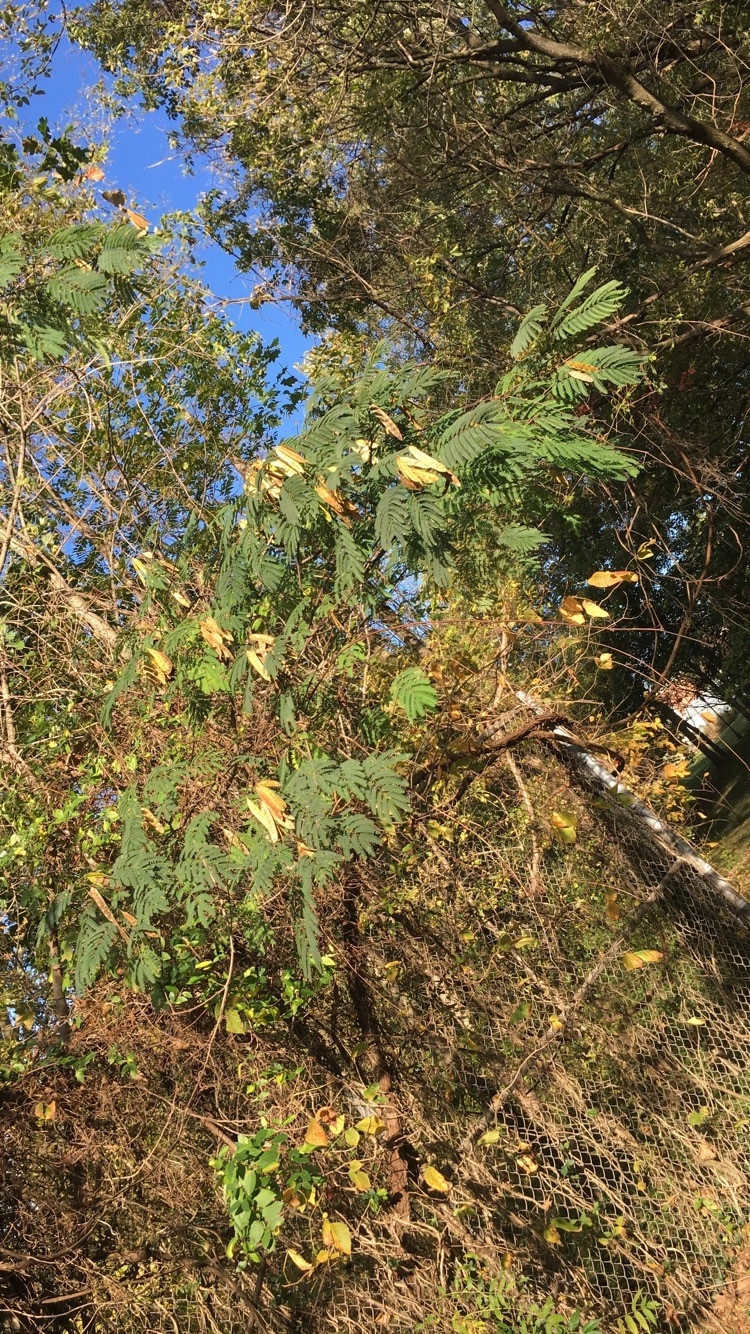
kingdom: Plantae
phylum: Tracheophyta
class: Magnoliopsida
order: Fabales
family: Fabaceae
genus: Albizia
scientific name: Albizia julibrissin
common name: persian silk tree
